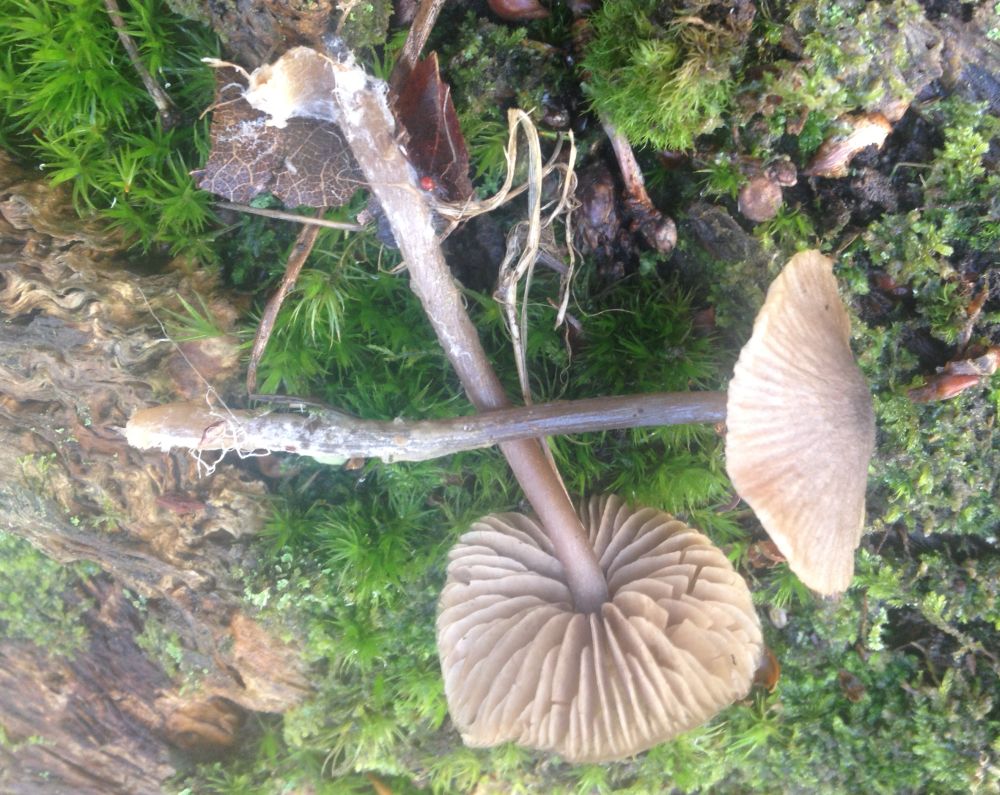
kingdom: Fungi
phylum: Basidiomycota
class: Agaricomycetes
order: Agaricales
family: Mycenaceae
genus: Mycena
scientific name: Mycena
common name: huesvamp
